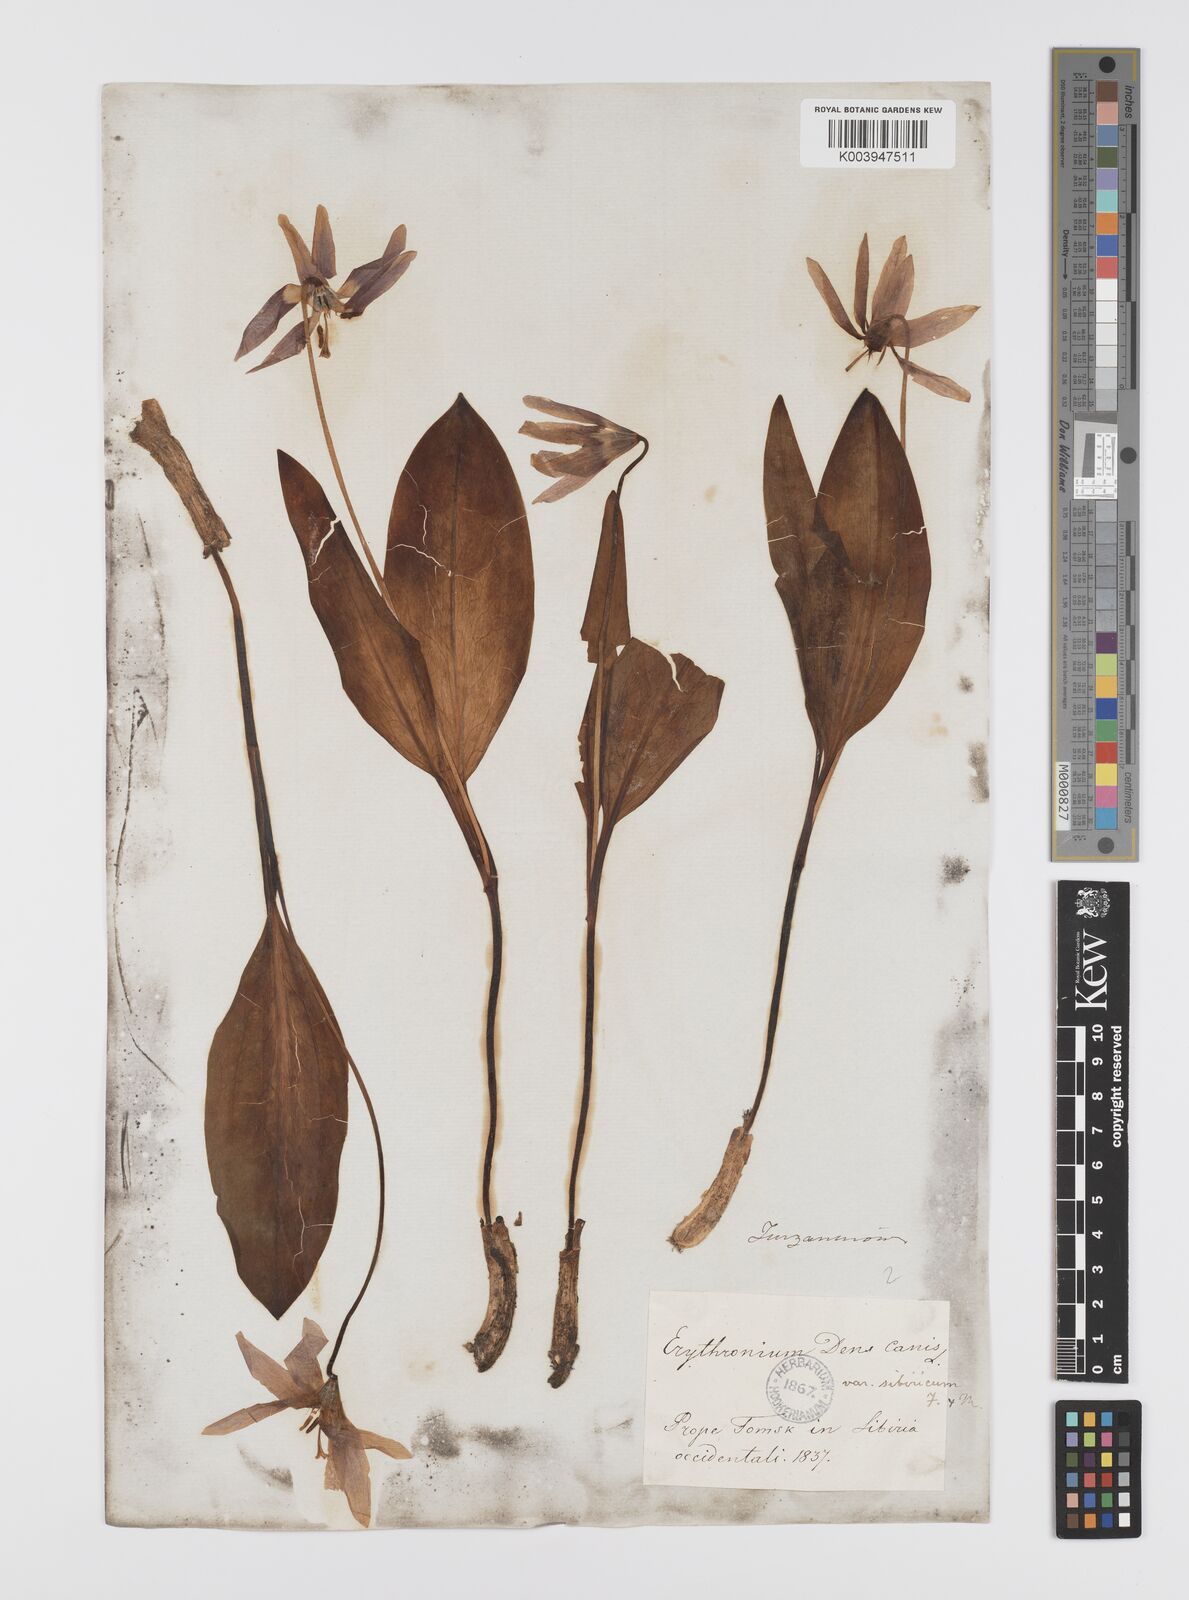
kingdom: Plantae
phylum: Tracheophyta
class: Liliopsida
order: Liliales
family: Liliaceae
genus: Erythronium
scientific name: Erythronium dens-canis
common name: Dog's-tooth-violet
